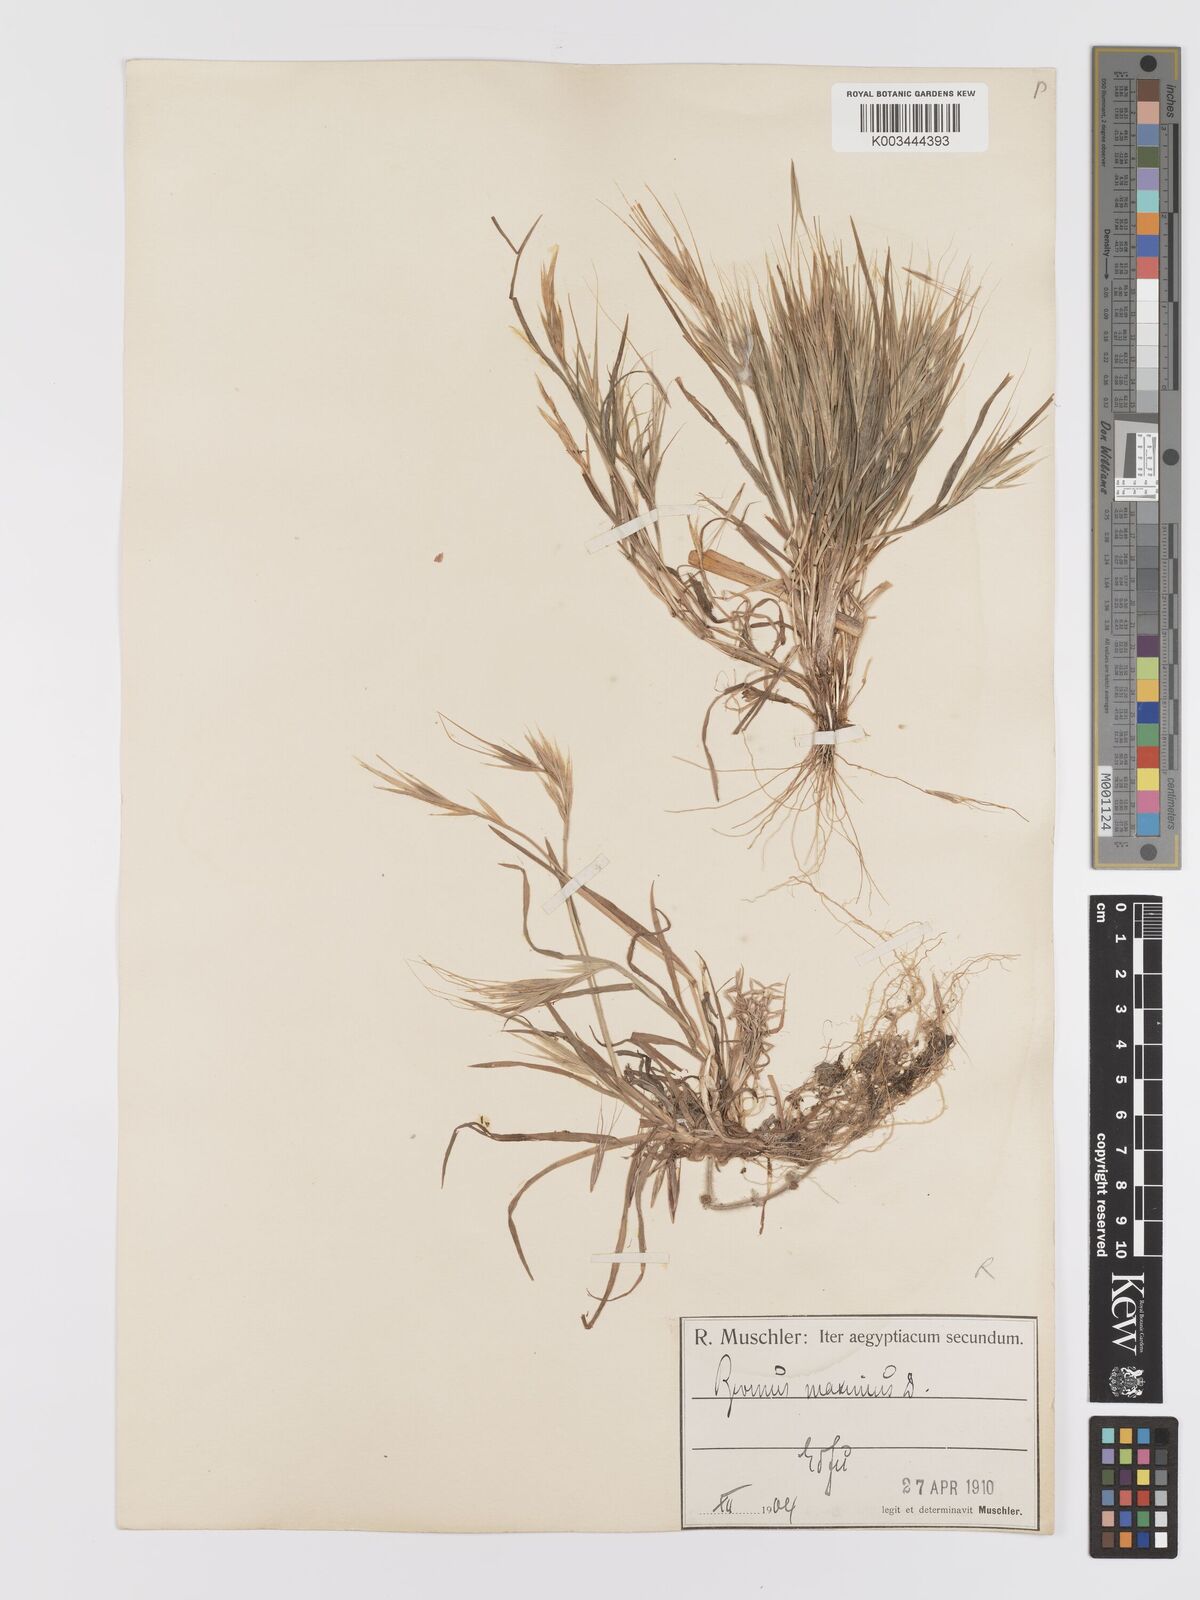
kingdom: Plantae
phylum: Tracheophyta
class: Liliopsida
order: Poales
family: Poaceae
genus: Bromus
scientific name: Bromus
